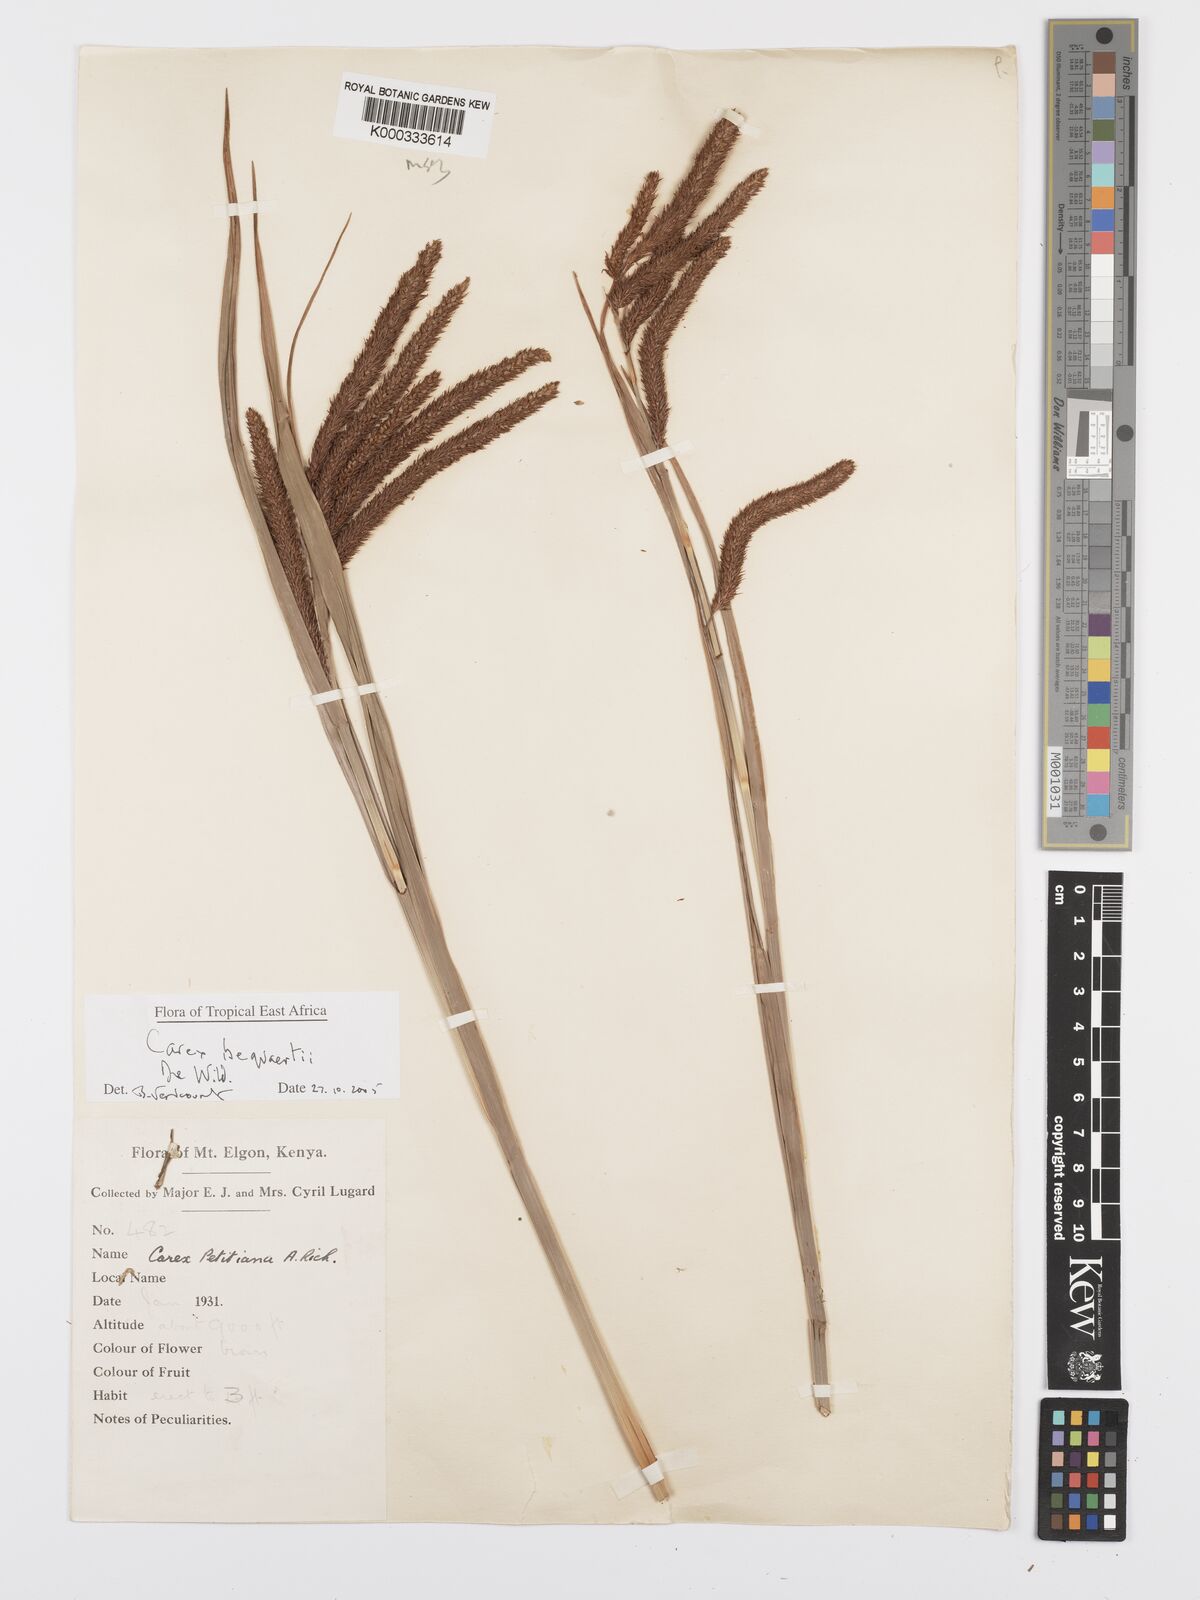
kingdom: Plantae
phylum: Tracheophyta
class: Liliopsida
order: Poales
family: Cyperaceae
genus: Carex
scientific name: Carex bequaertii
